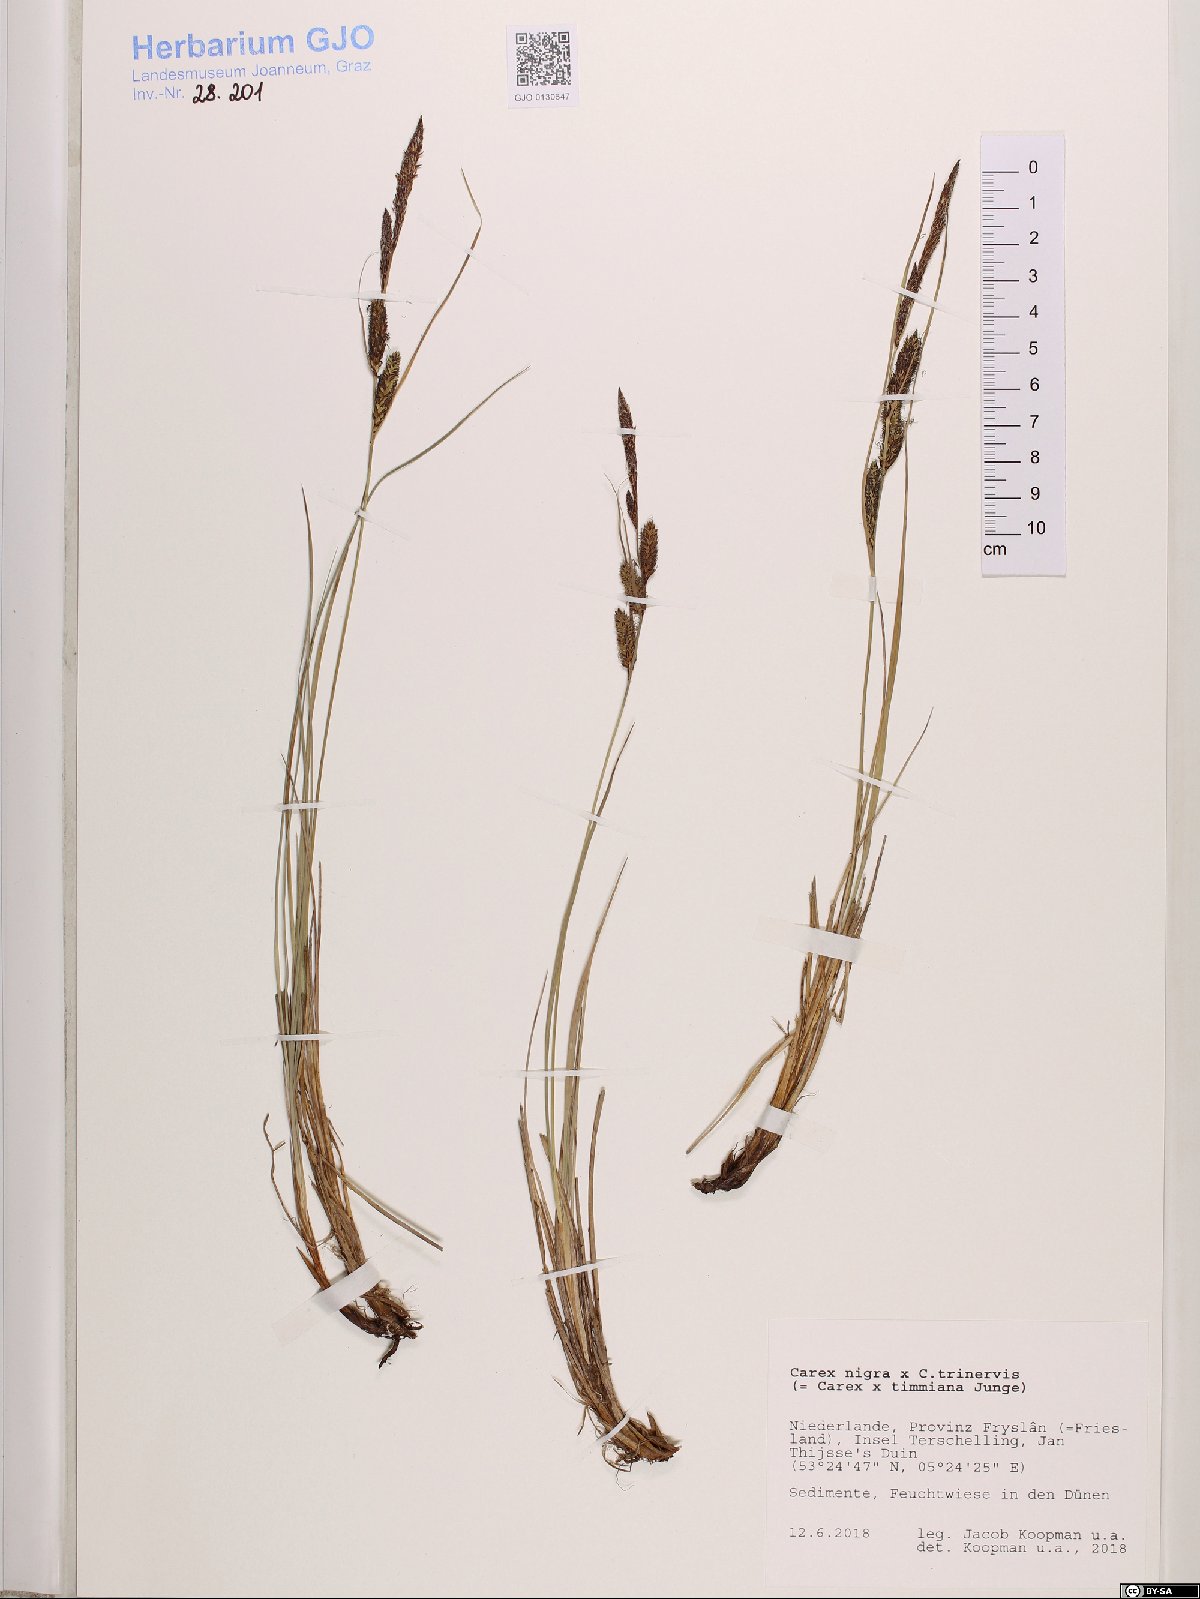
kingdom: Plantae
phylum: Tracheophyta
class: Liliopsida
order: Poales
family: Cyperaceae
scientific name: Cyperaceae
